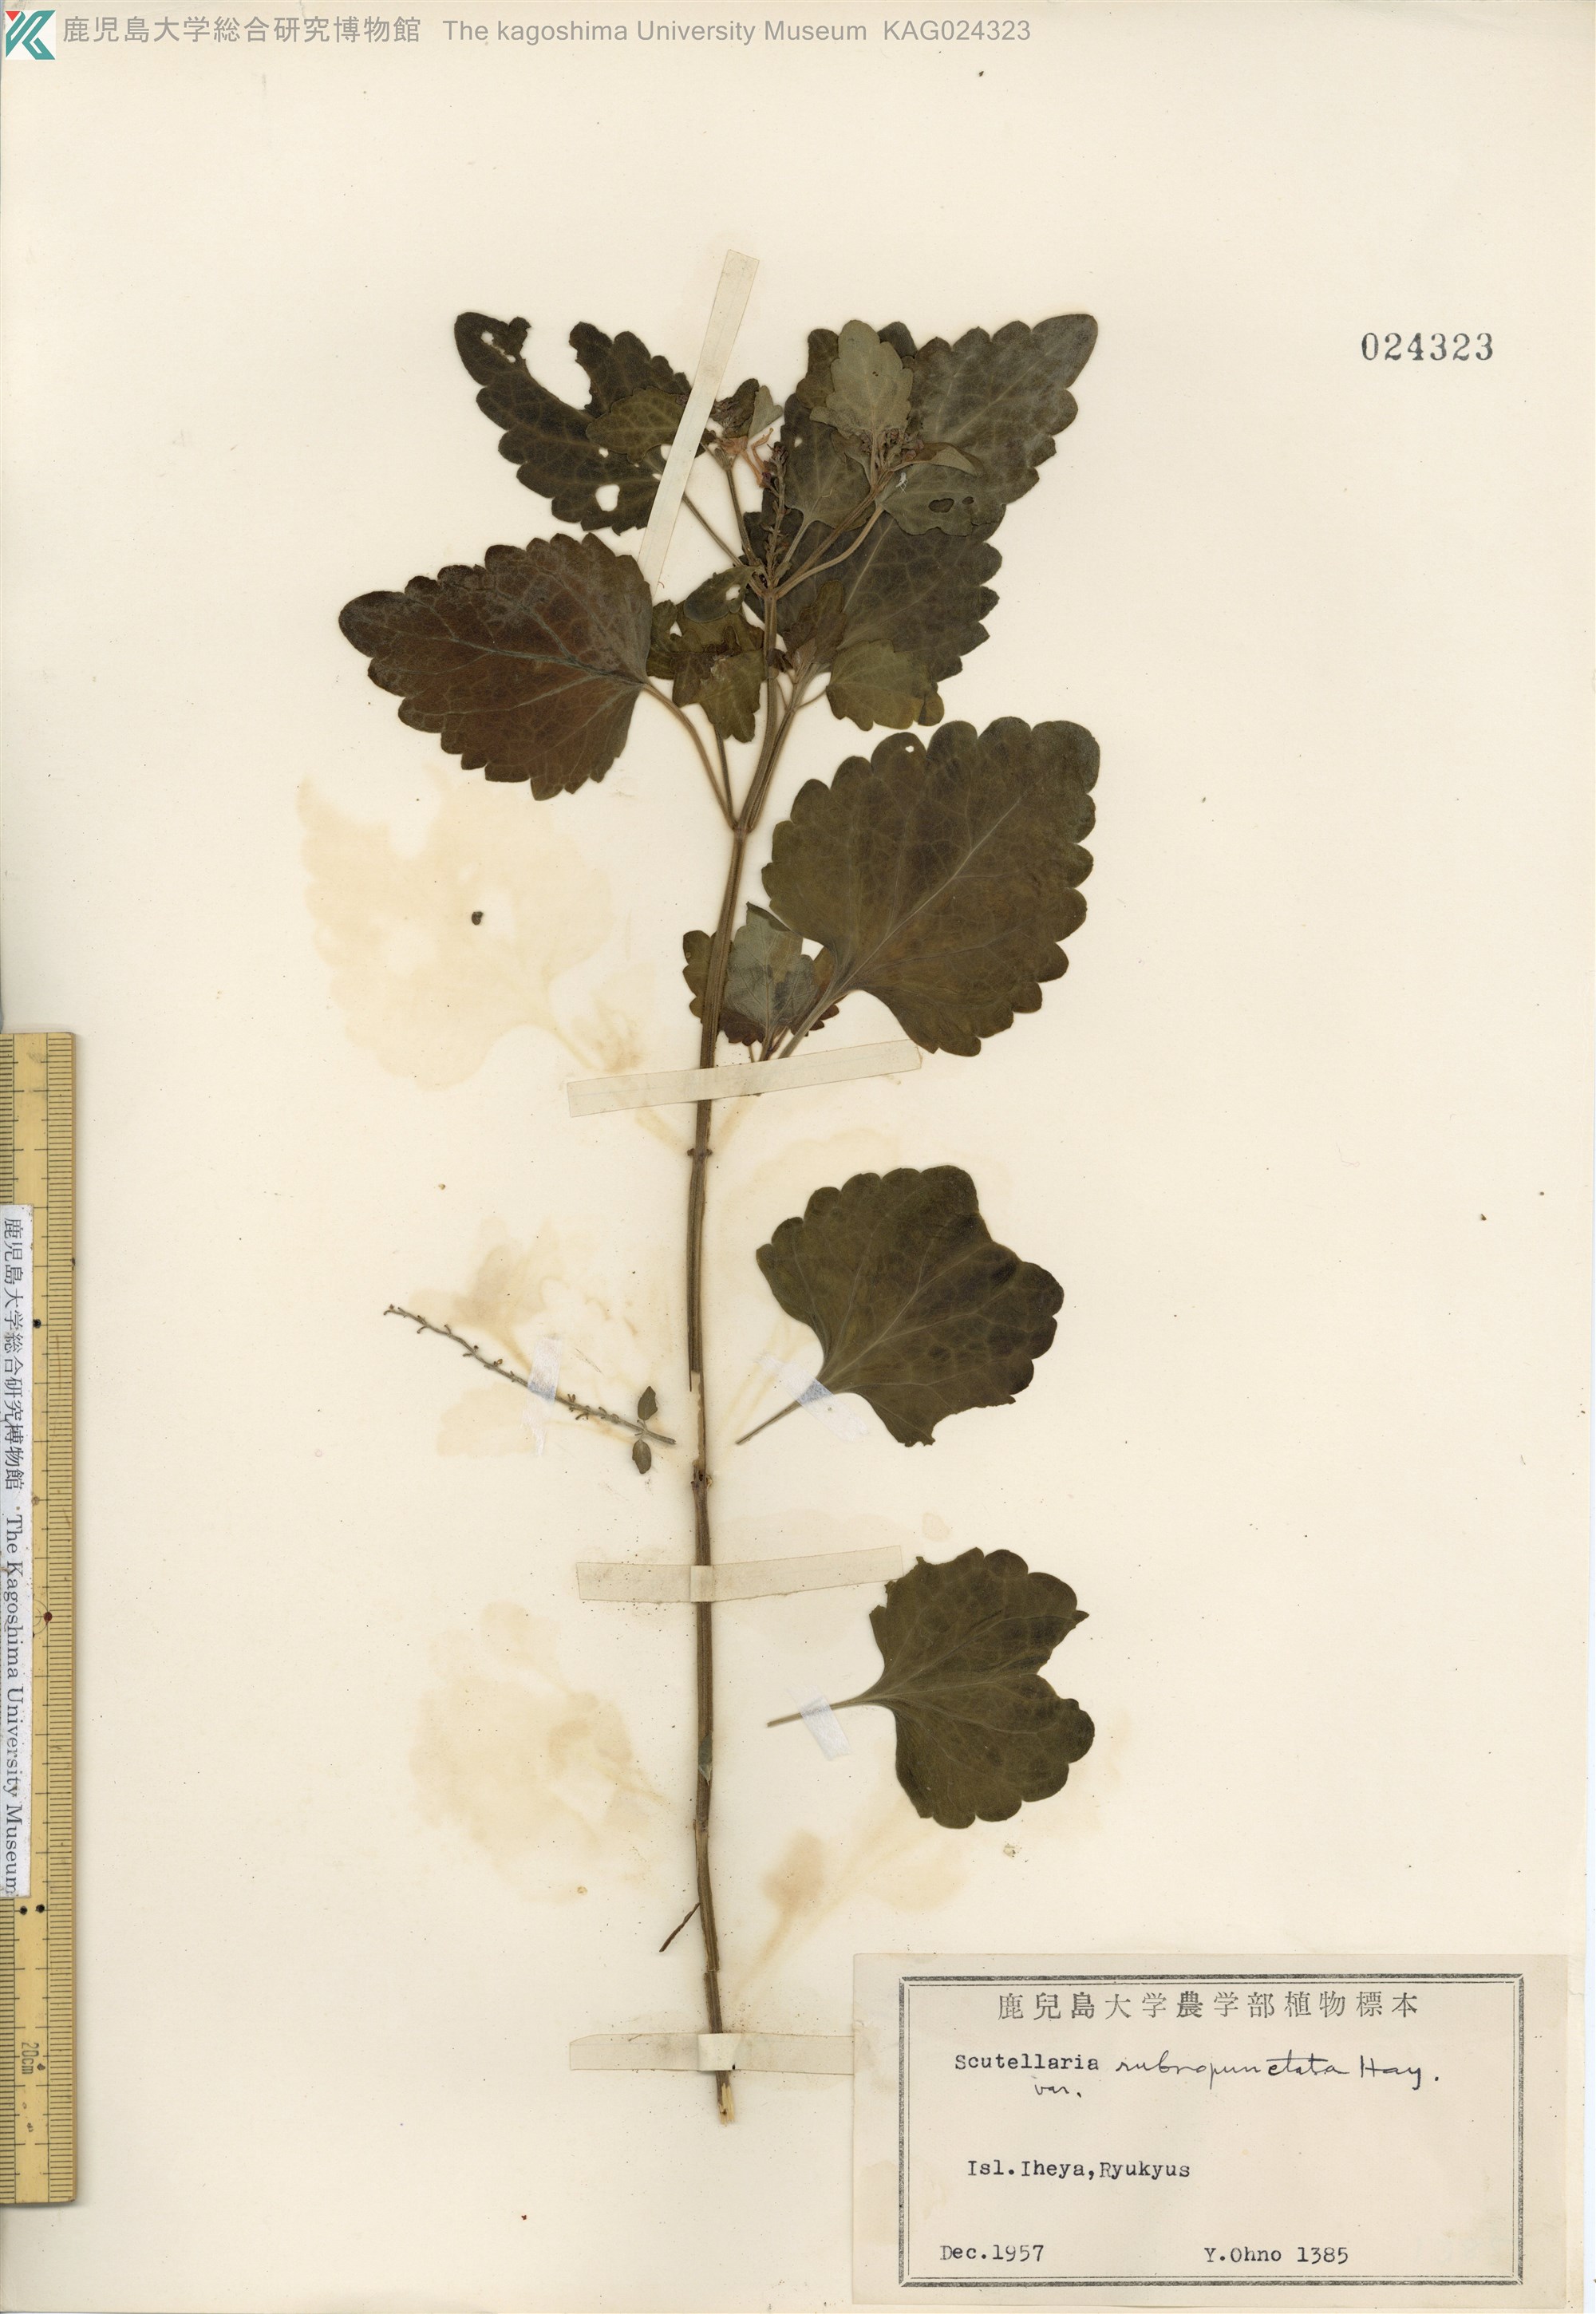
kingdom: Plantae
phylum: Tracheophyta
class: Magnoliopsida
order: Lamiales
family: Lamiaceae
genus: Scutellaria
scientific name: Scutellaria rubropunctata
